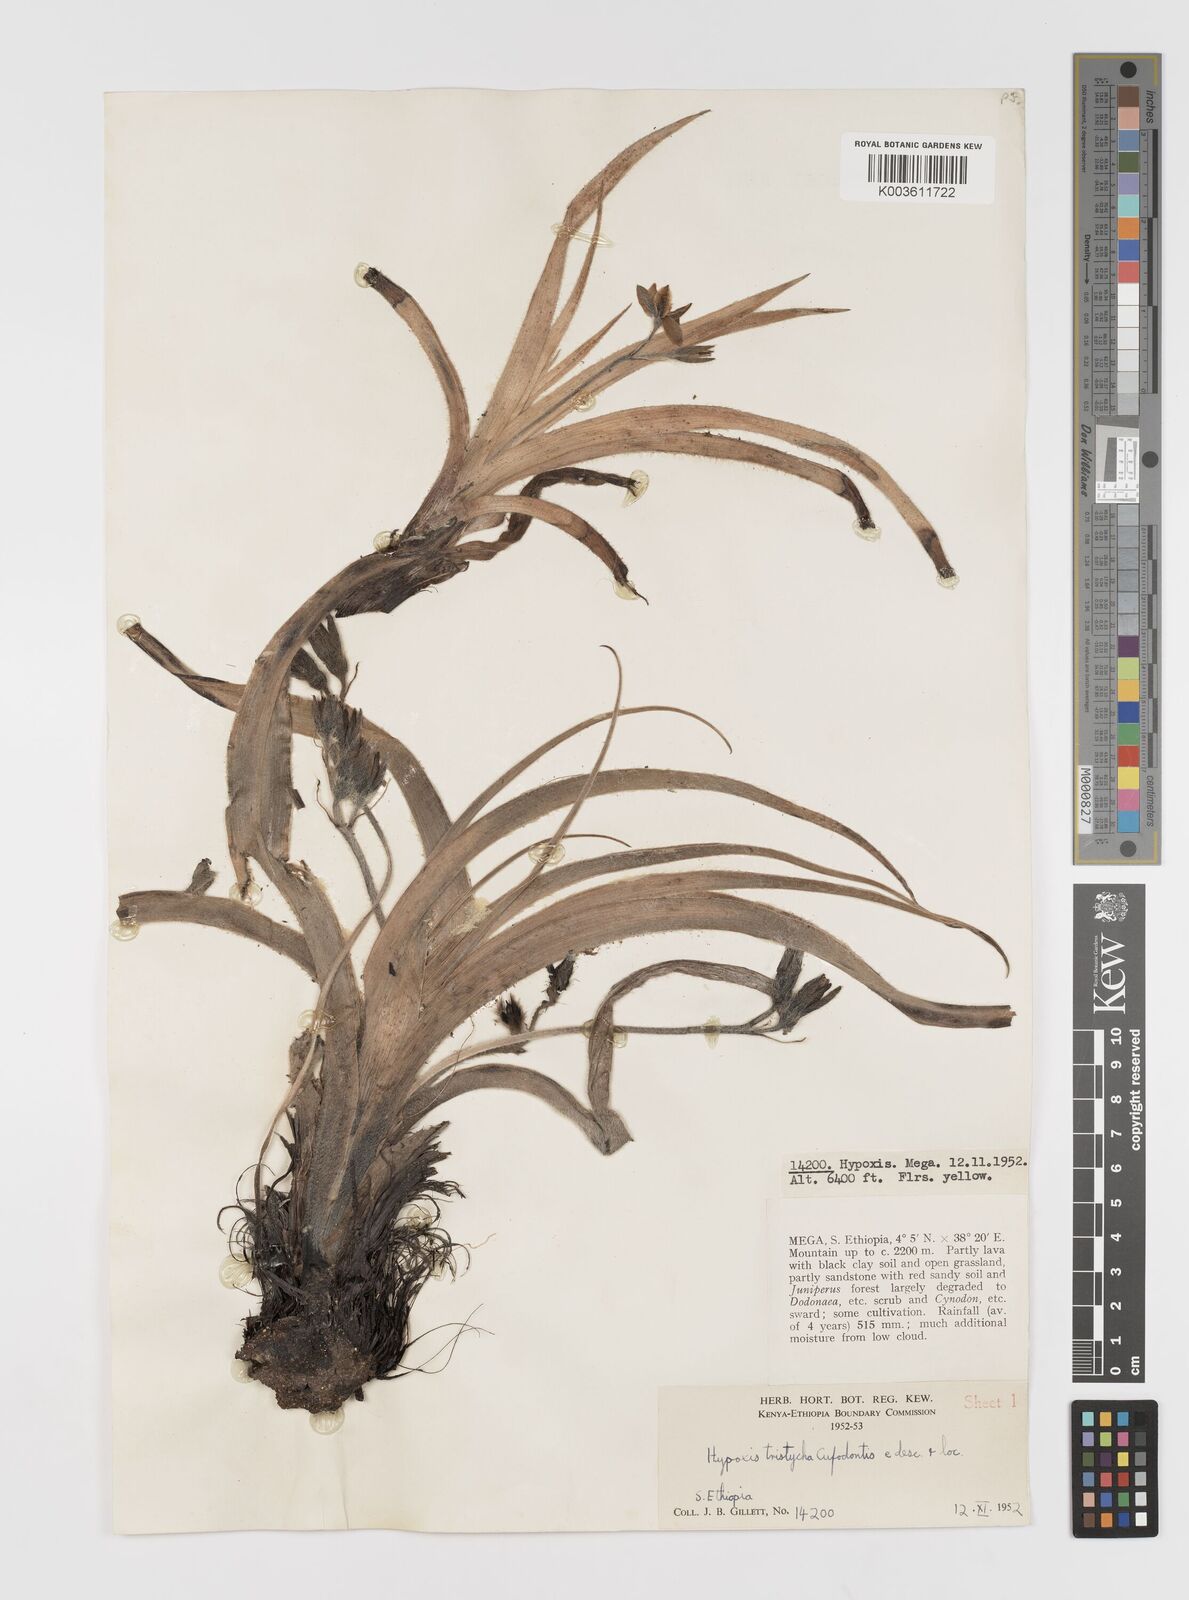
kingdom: Plantae
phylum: Tracheophyta
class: Liliopsida
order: Asparagales
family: Hypoxidaceae
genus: Hypoxis
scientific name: Hypoxis abyssinica
